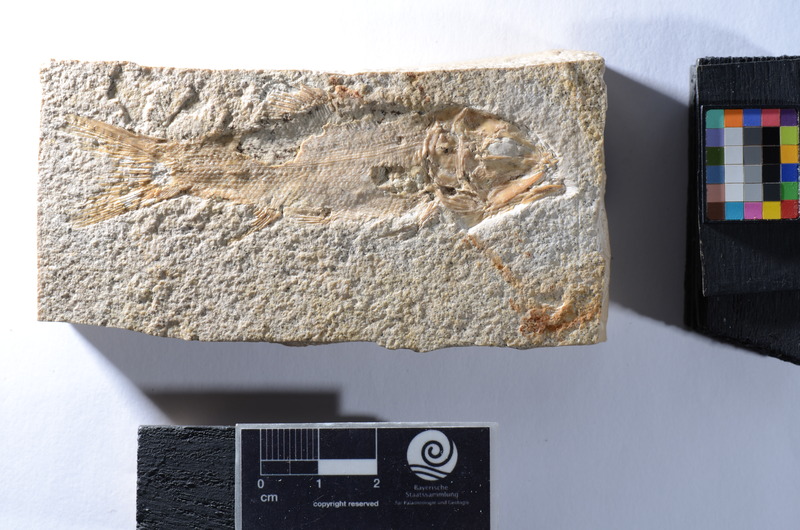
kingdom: Animalia
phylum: Chordata
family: Ophiopsiellidae
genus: Furo
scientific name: Furo
